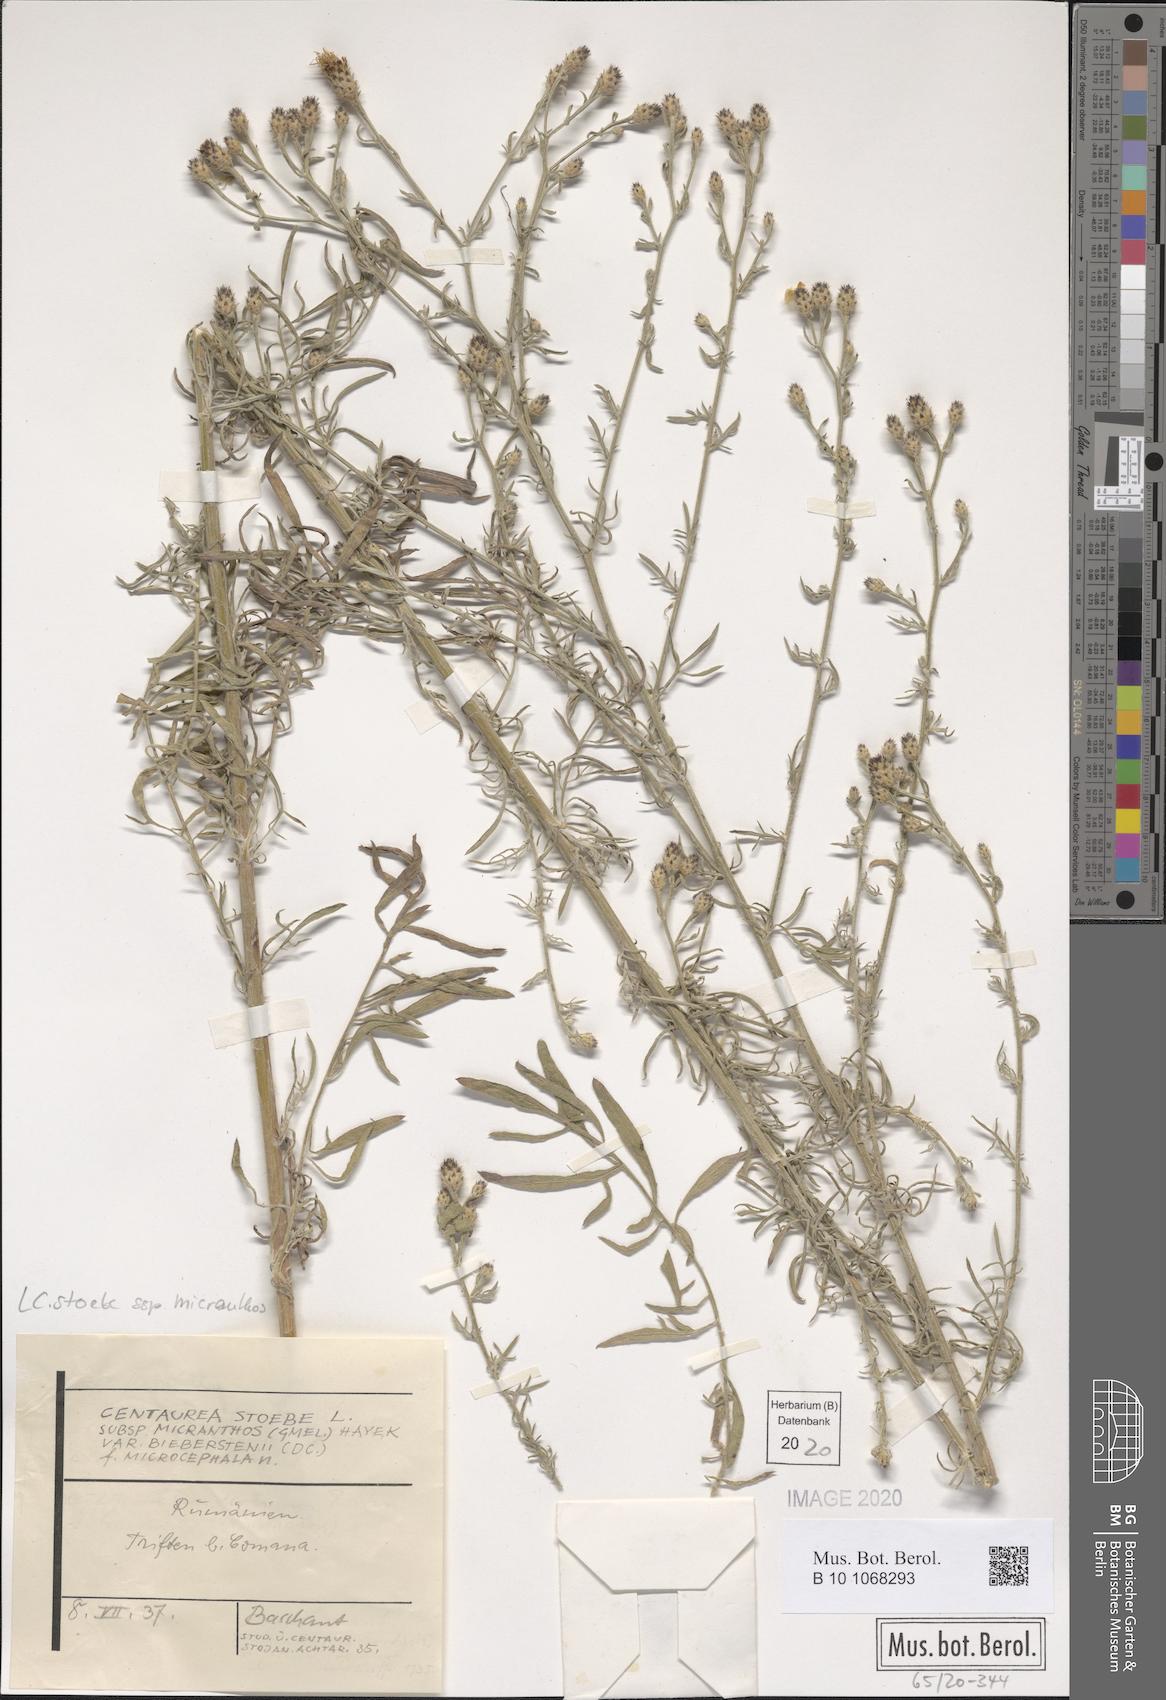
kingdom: Plantae
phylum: Tracheophyta
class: Magnoliopsida
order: Asterales
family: Asteraceae
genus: Centaurea
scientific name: Centaurea australis
